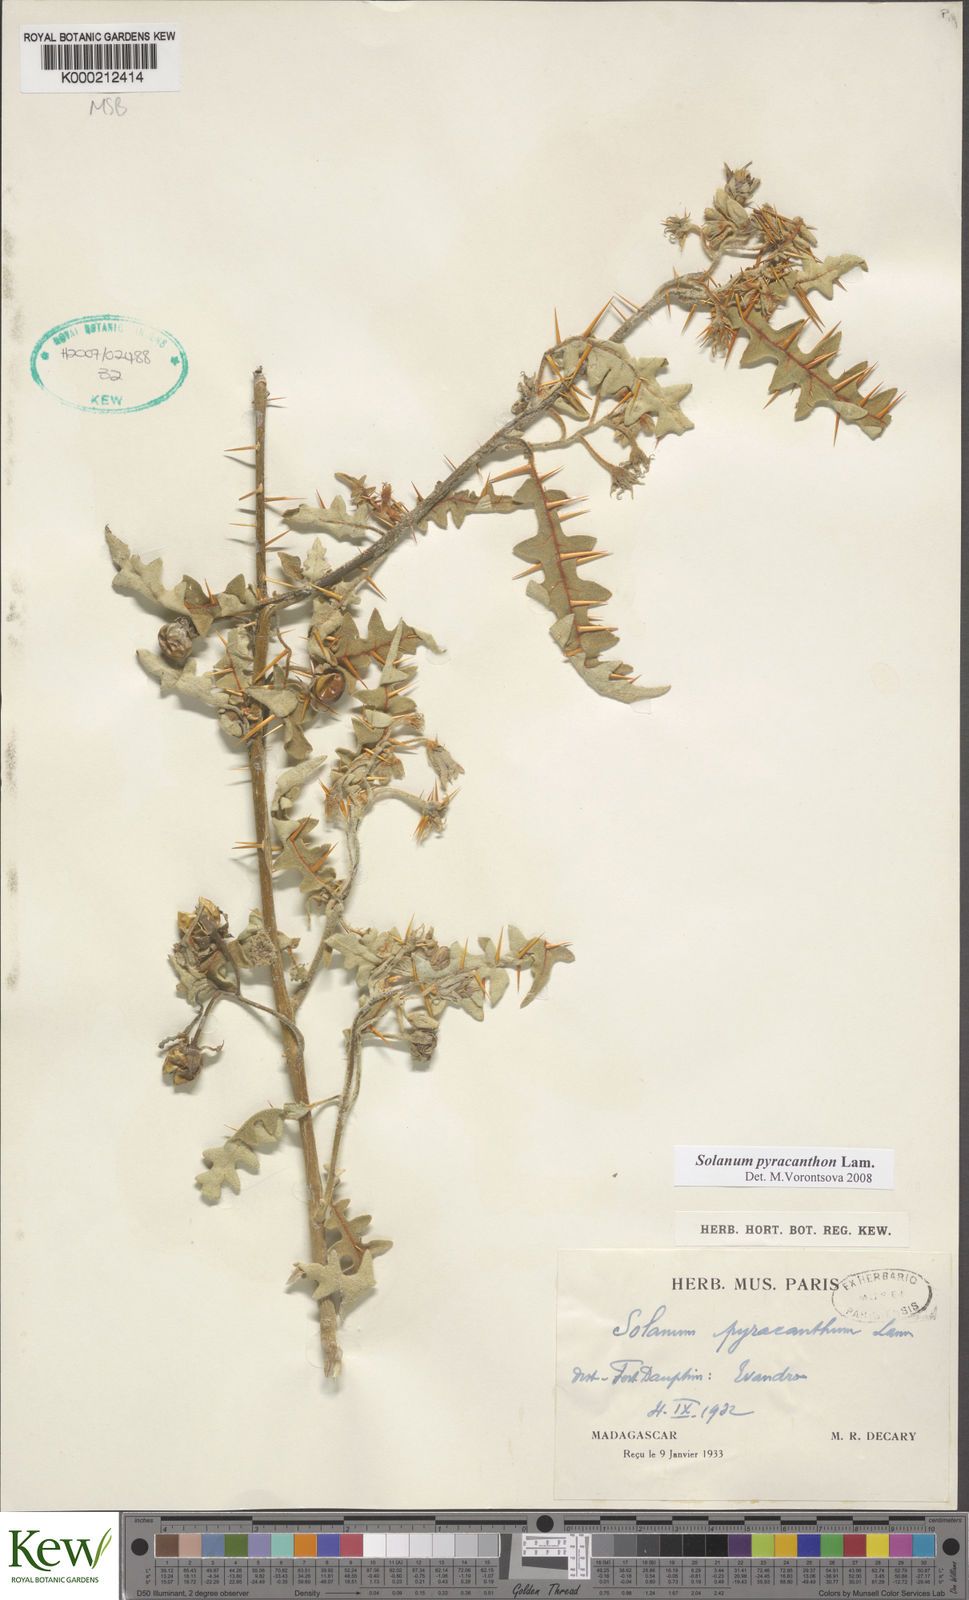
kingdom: Plantae
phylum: Tracheophyta
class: Magnoliopsida
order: Solanales
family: Solanaceae
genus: Solanum
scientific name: Solanum pyracanthos
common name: Porcupine-tomato
